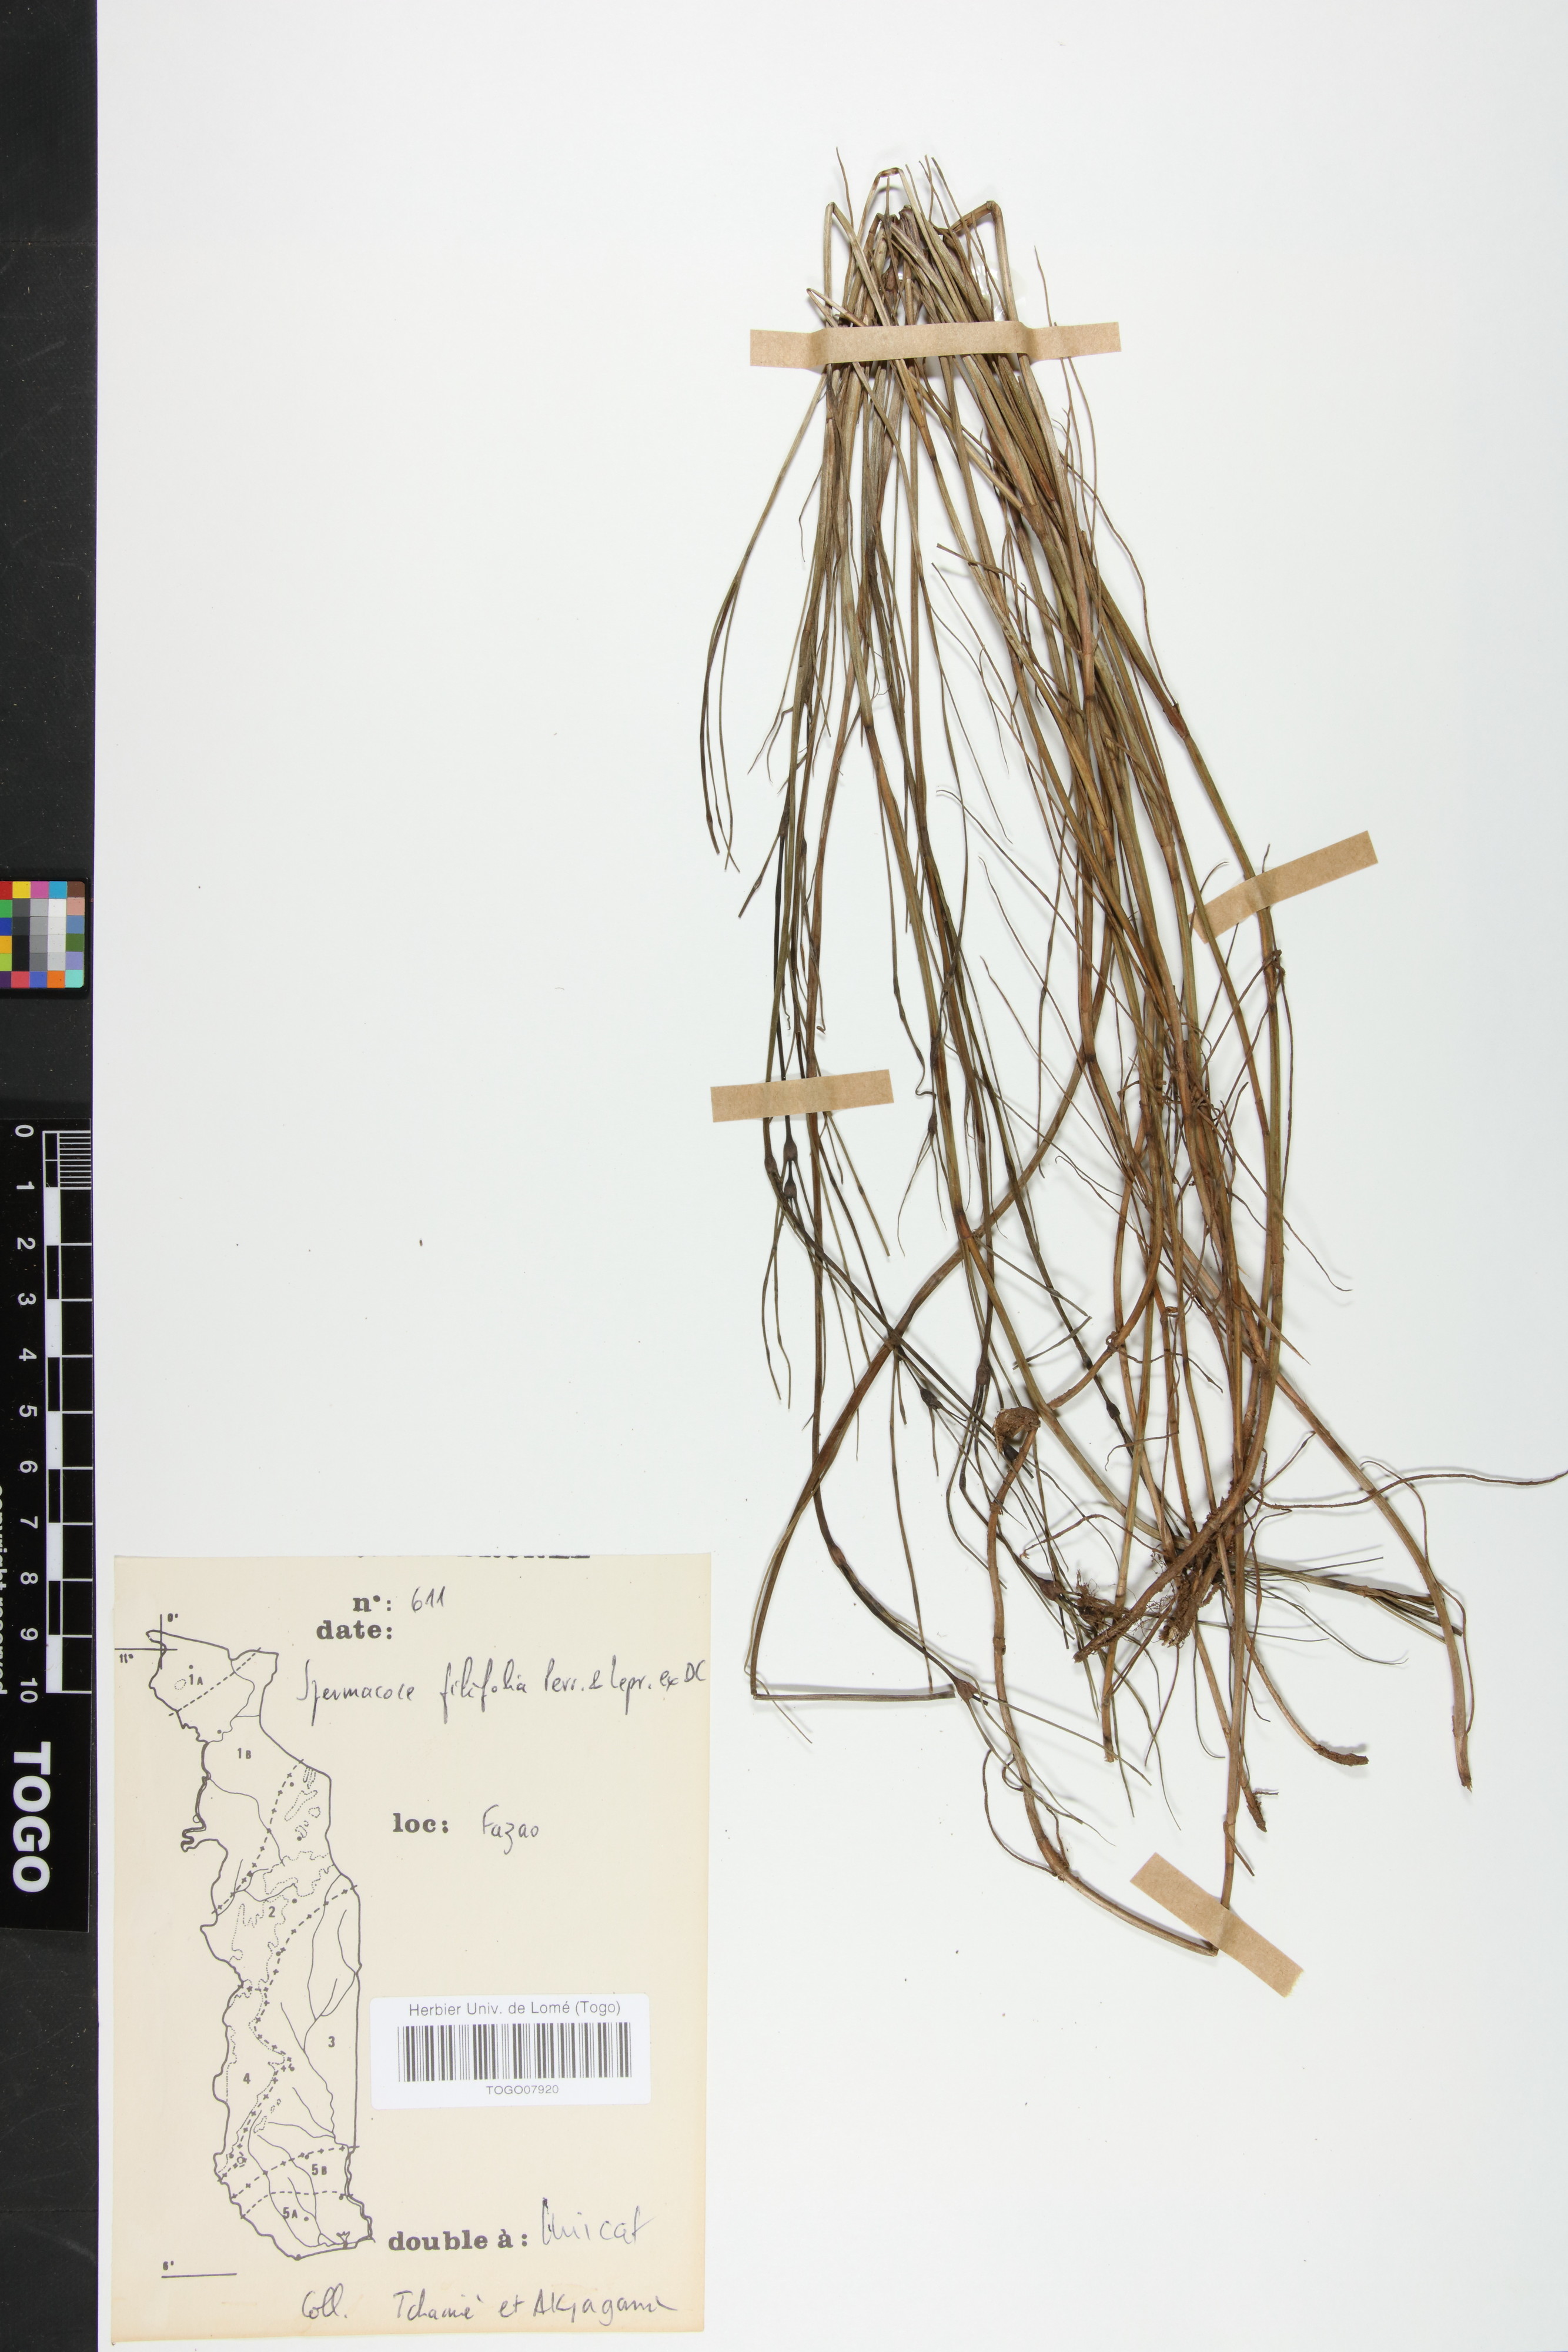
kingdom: Plantae
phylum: Tracheophyta
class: Magnoliopsida
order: Gentianales
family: Rubiaceae
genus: Spermacoce
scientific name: Spermacoce filifolia
